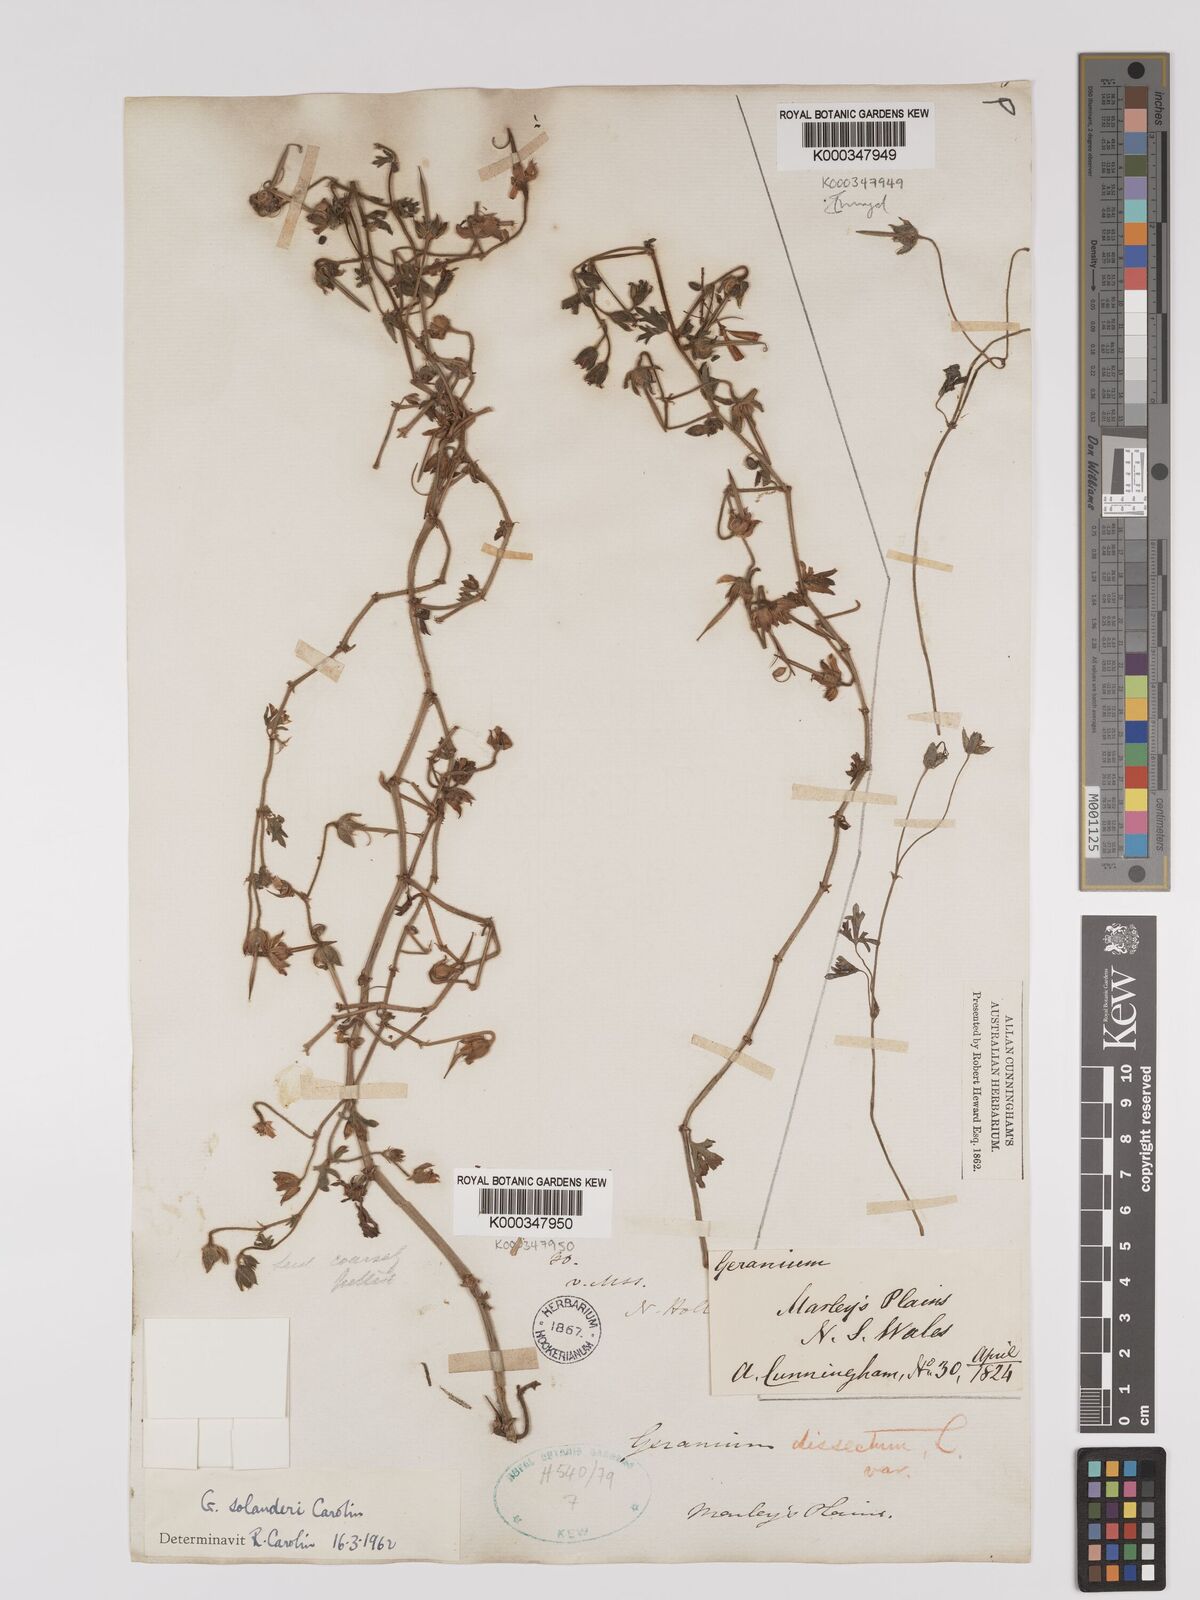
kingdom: Plantae
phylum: Tracheophyta
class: Magnoliopsida
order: Geraniales
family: Geraniaceae
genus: Geranium
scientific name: Geranium solanderi
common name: Solander's geranium
